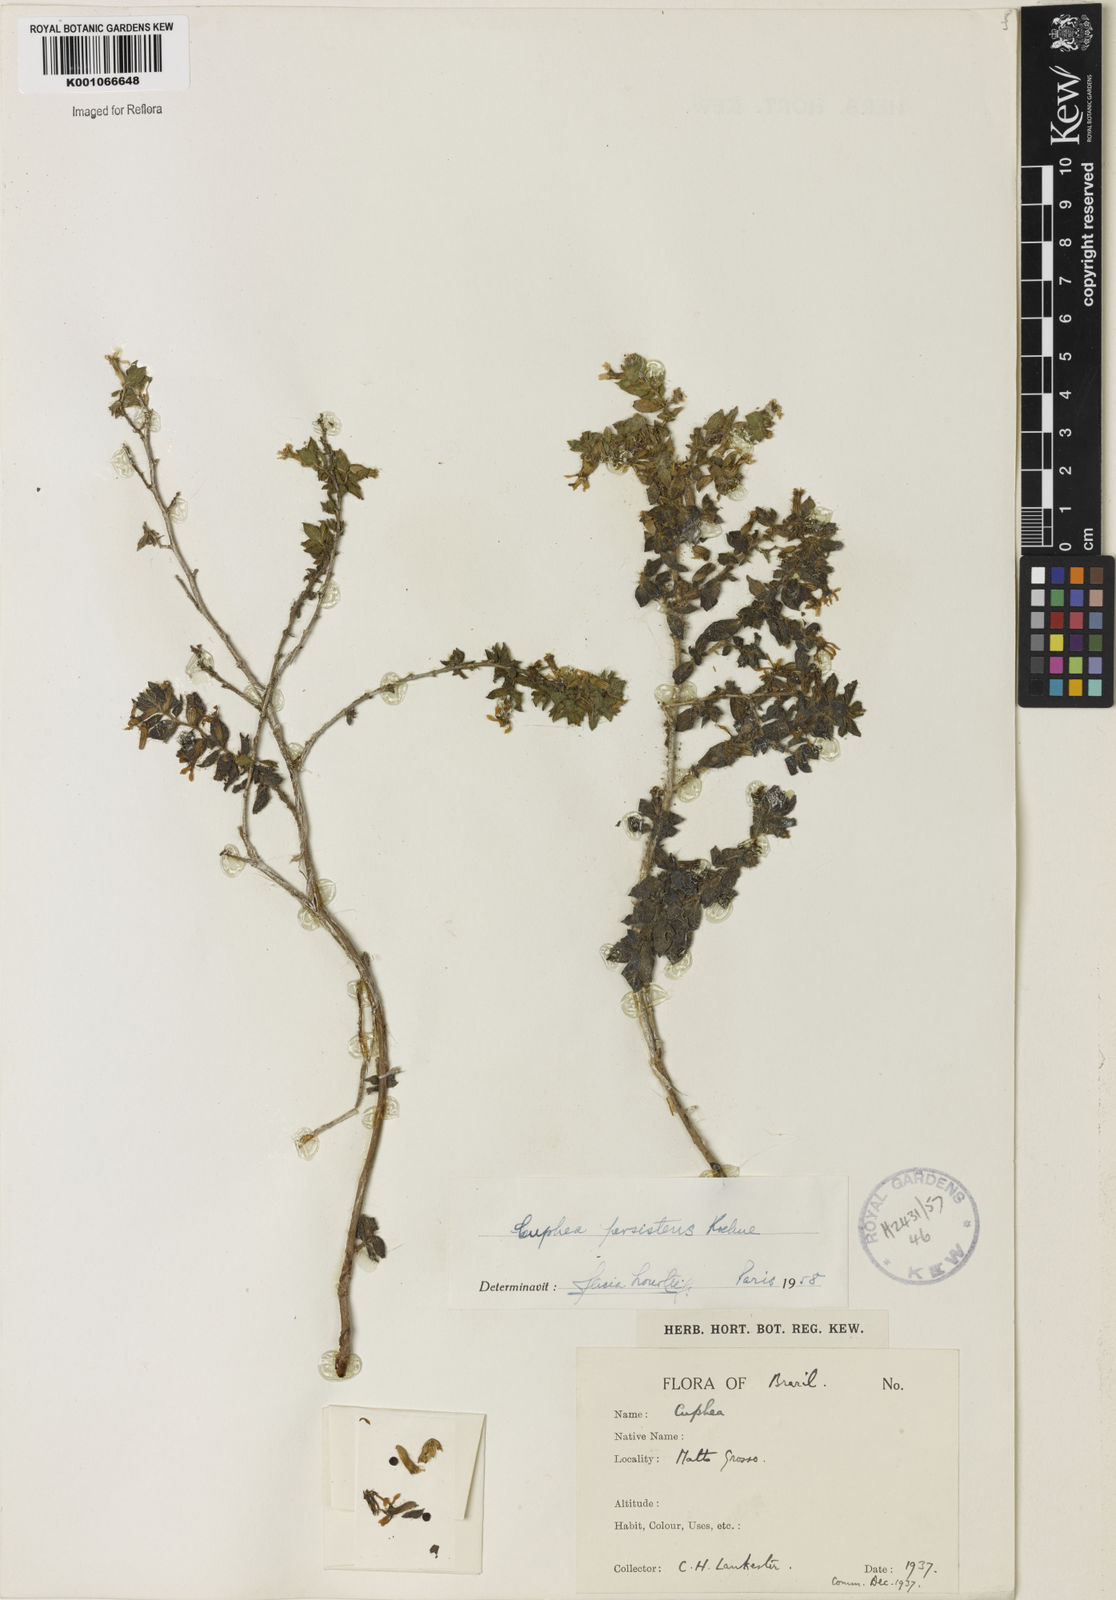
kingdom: Plantae
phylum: Tracheophyta
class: Magnoliopsida
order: Myrtales
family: Lythraceae
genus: Cuphea
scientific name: Cuphea persistens
